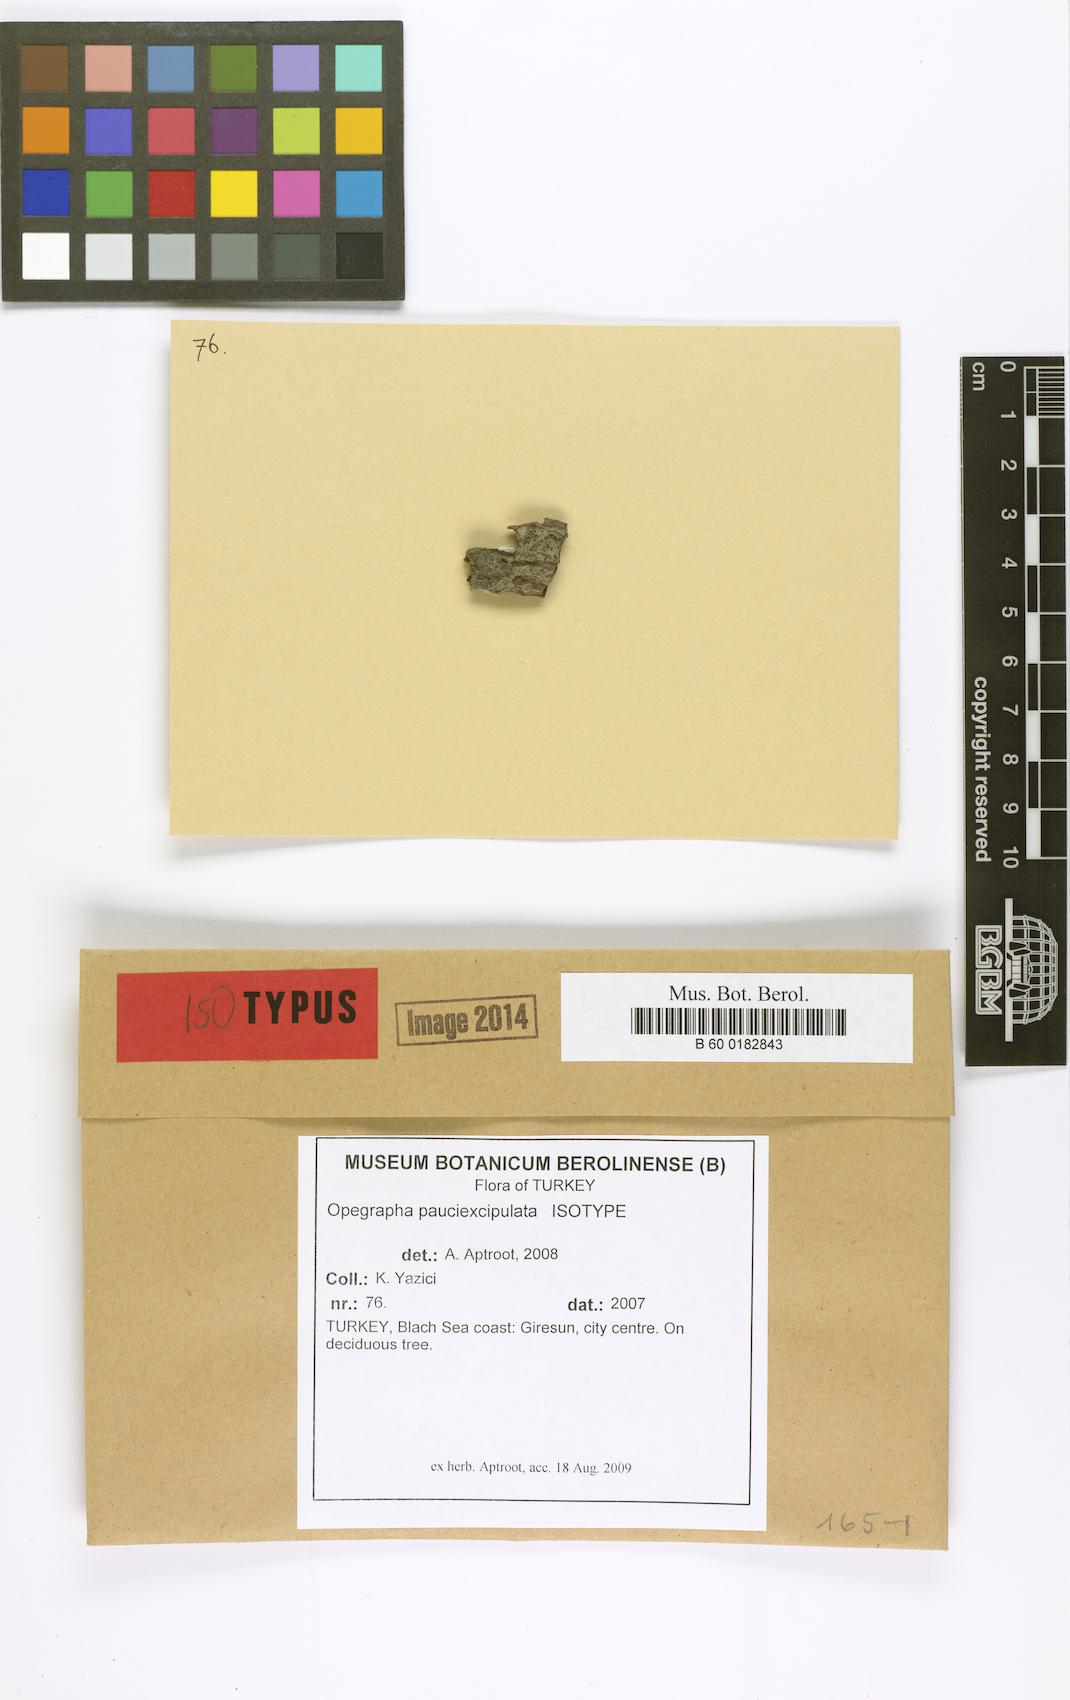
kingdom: Fungi
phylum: Ascomycota
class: Arthoniomycetes
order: Arthoniales
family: Opegraphaceae
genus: Opegrapha
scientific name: Opegrapha pauciexcipulata
